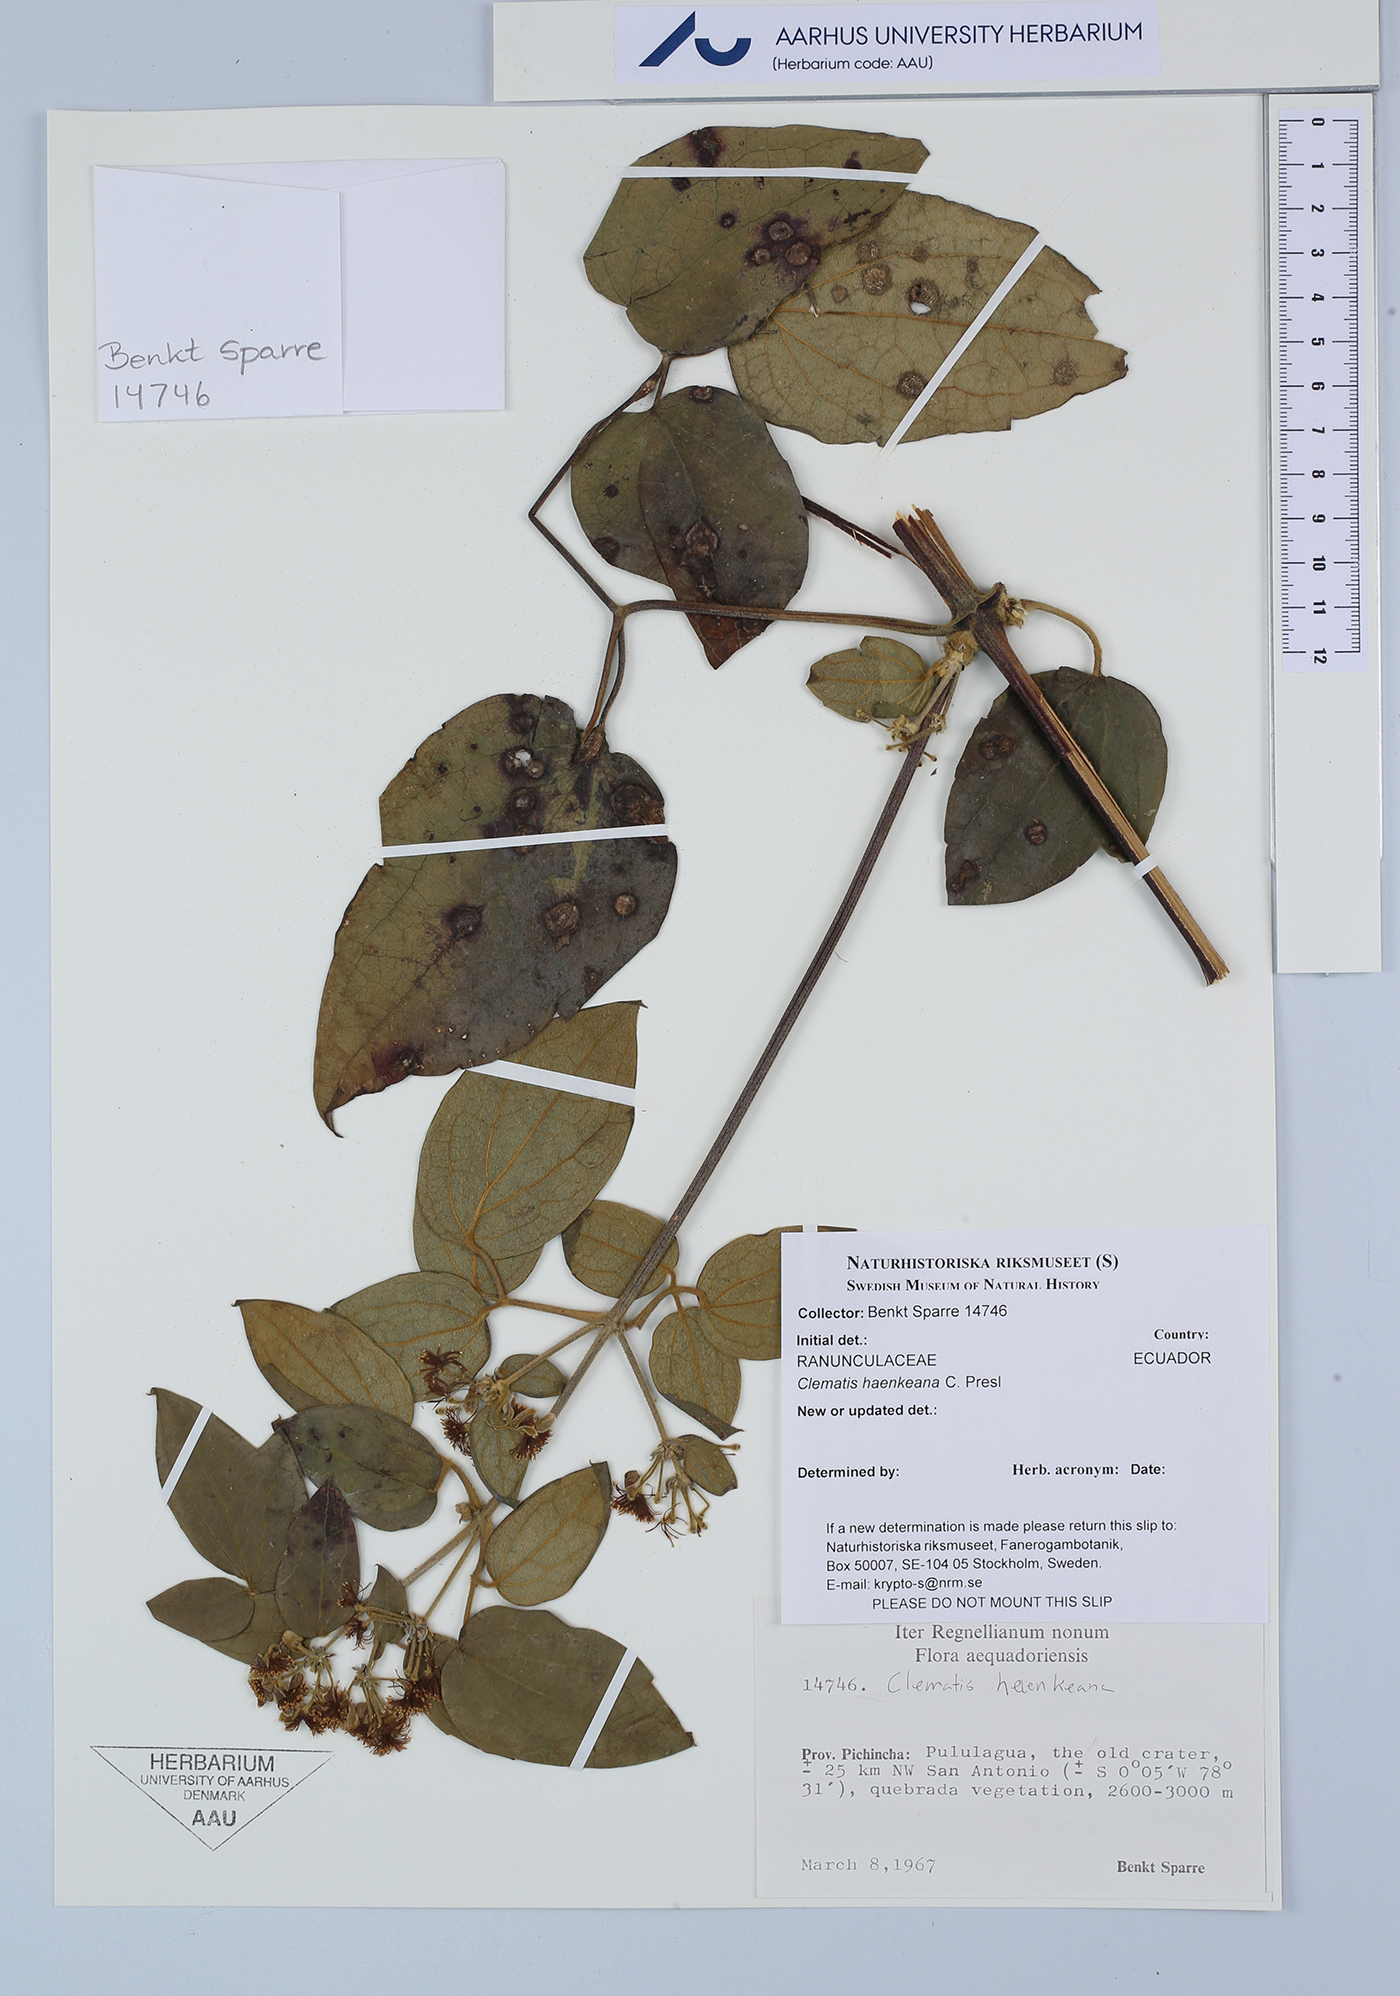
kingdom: Plantae
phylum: Tracheophyta
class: Magnoliopsida
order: Ranunculales
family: Ranunculaceae
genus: Clematis
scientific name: Clematis haenkeana
